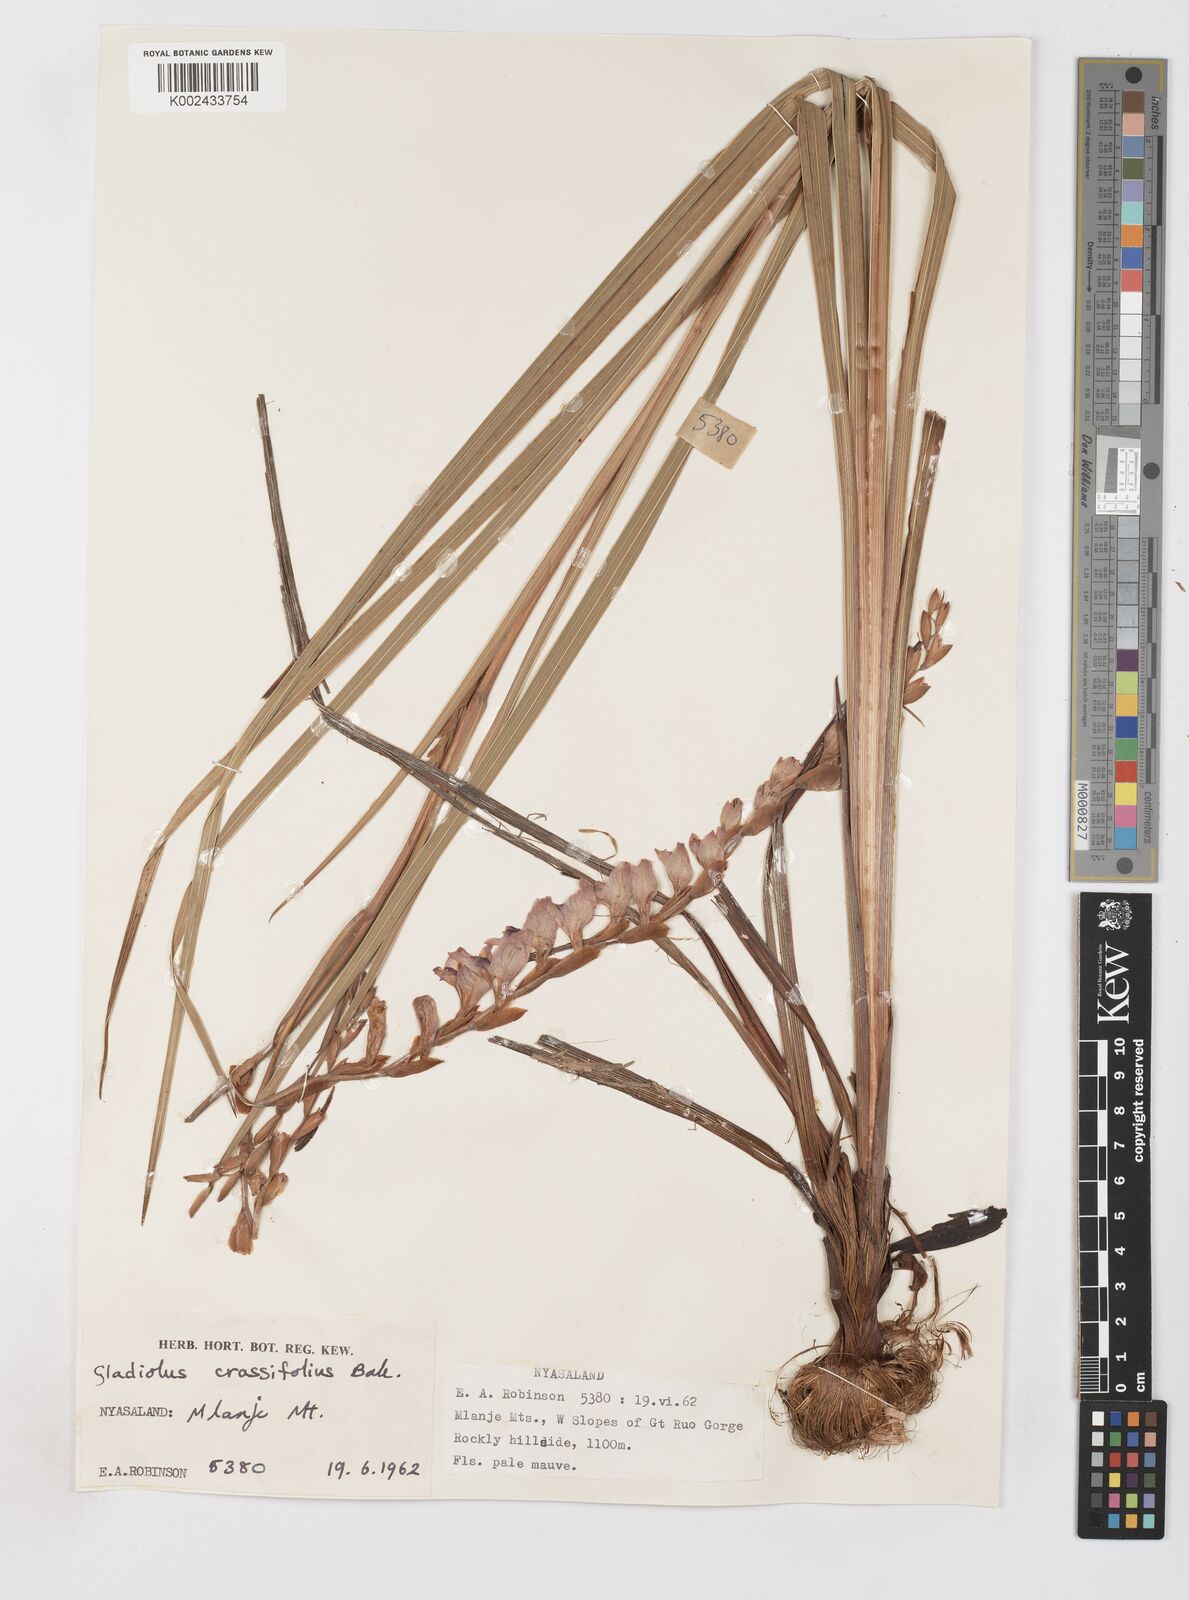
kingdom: Plantae
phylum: Tracheophyta
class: Liliopsida
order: Asparagales
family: Iridaceae
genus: Gladiolus
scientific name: Gladiolus crassifolius
